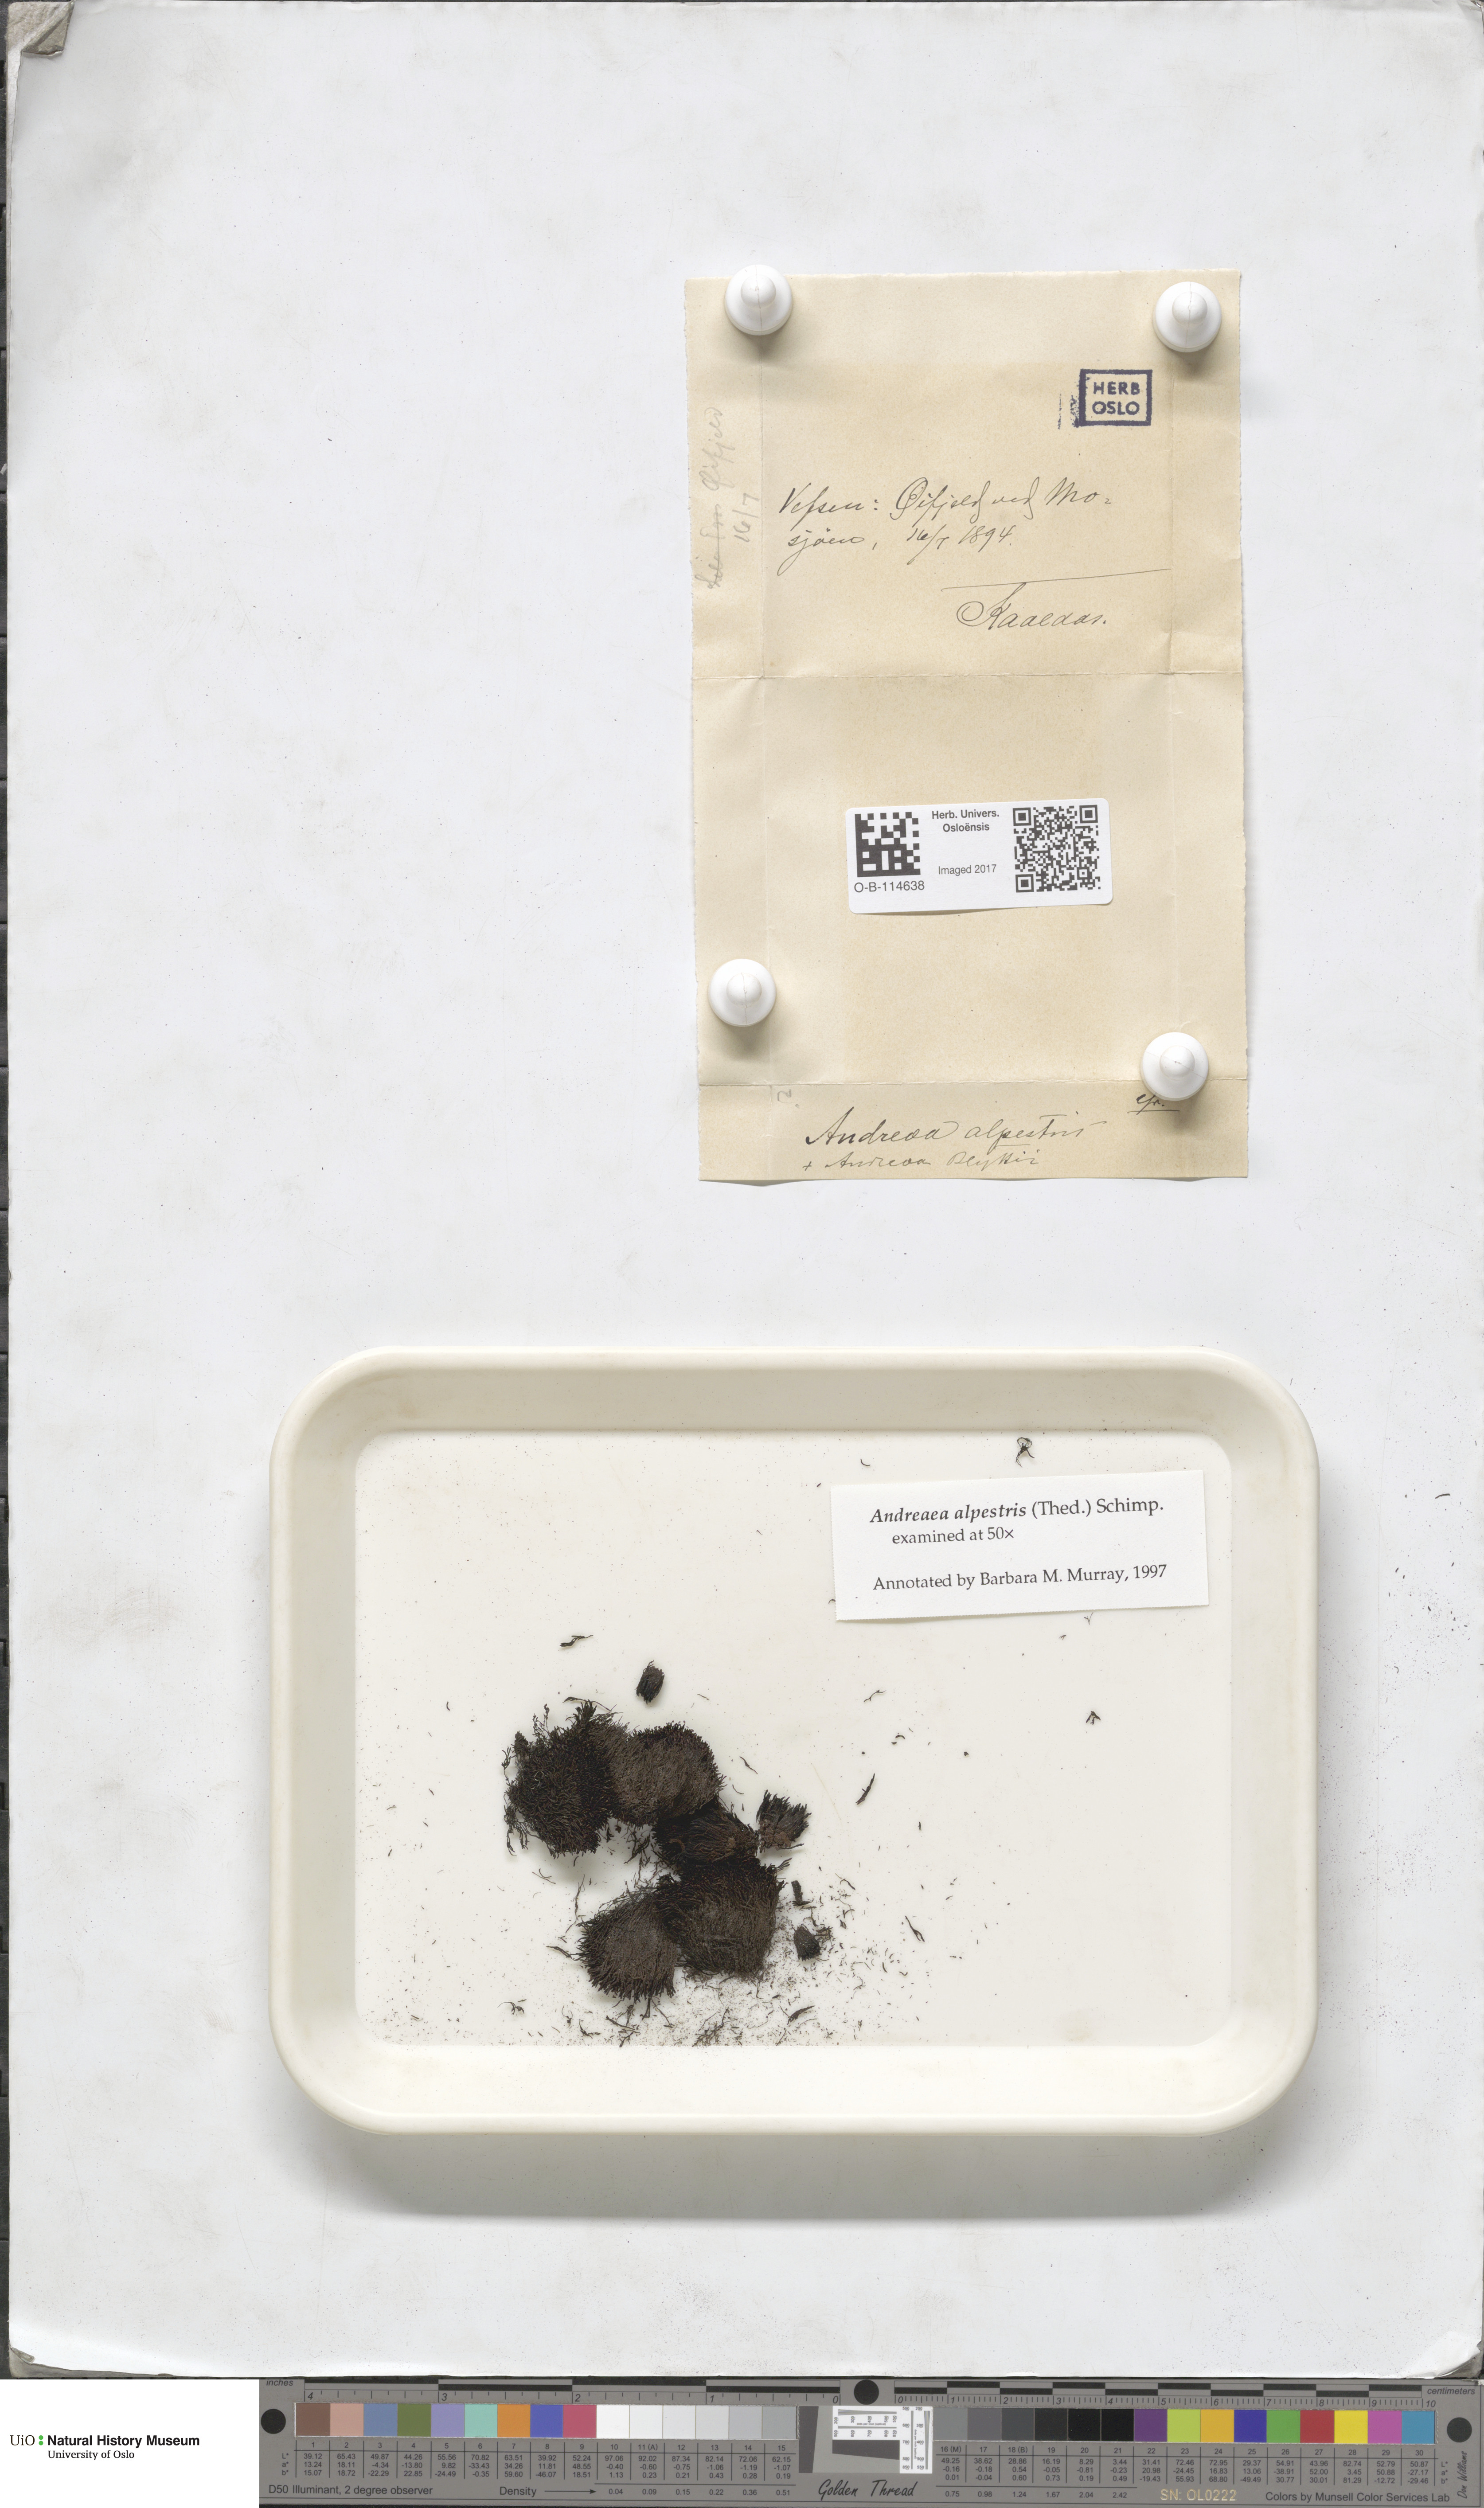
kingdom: Plantae
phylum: Bryophyta
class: Andreaeopsida
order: Andreaeales
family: Andreaeaceae
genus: Andreaea
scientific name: Andreaea alpestris
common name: Slender rock-moss
